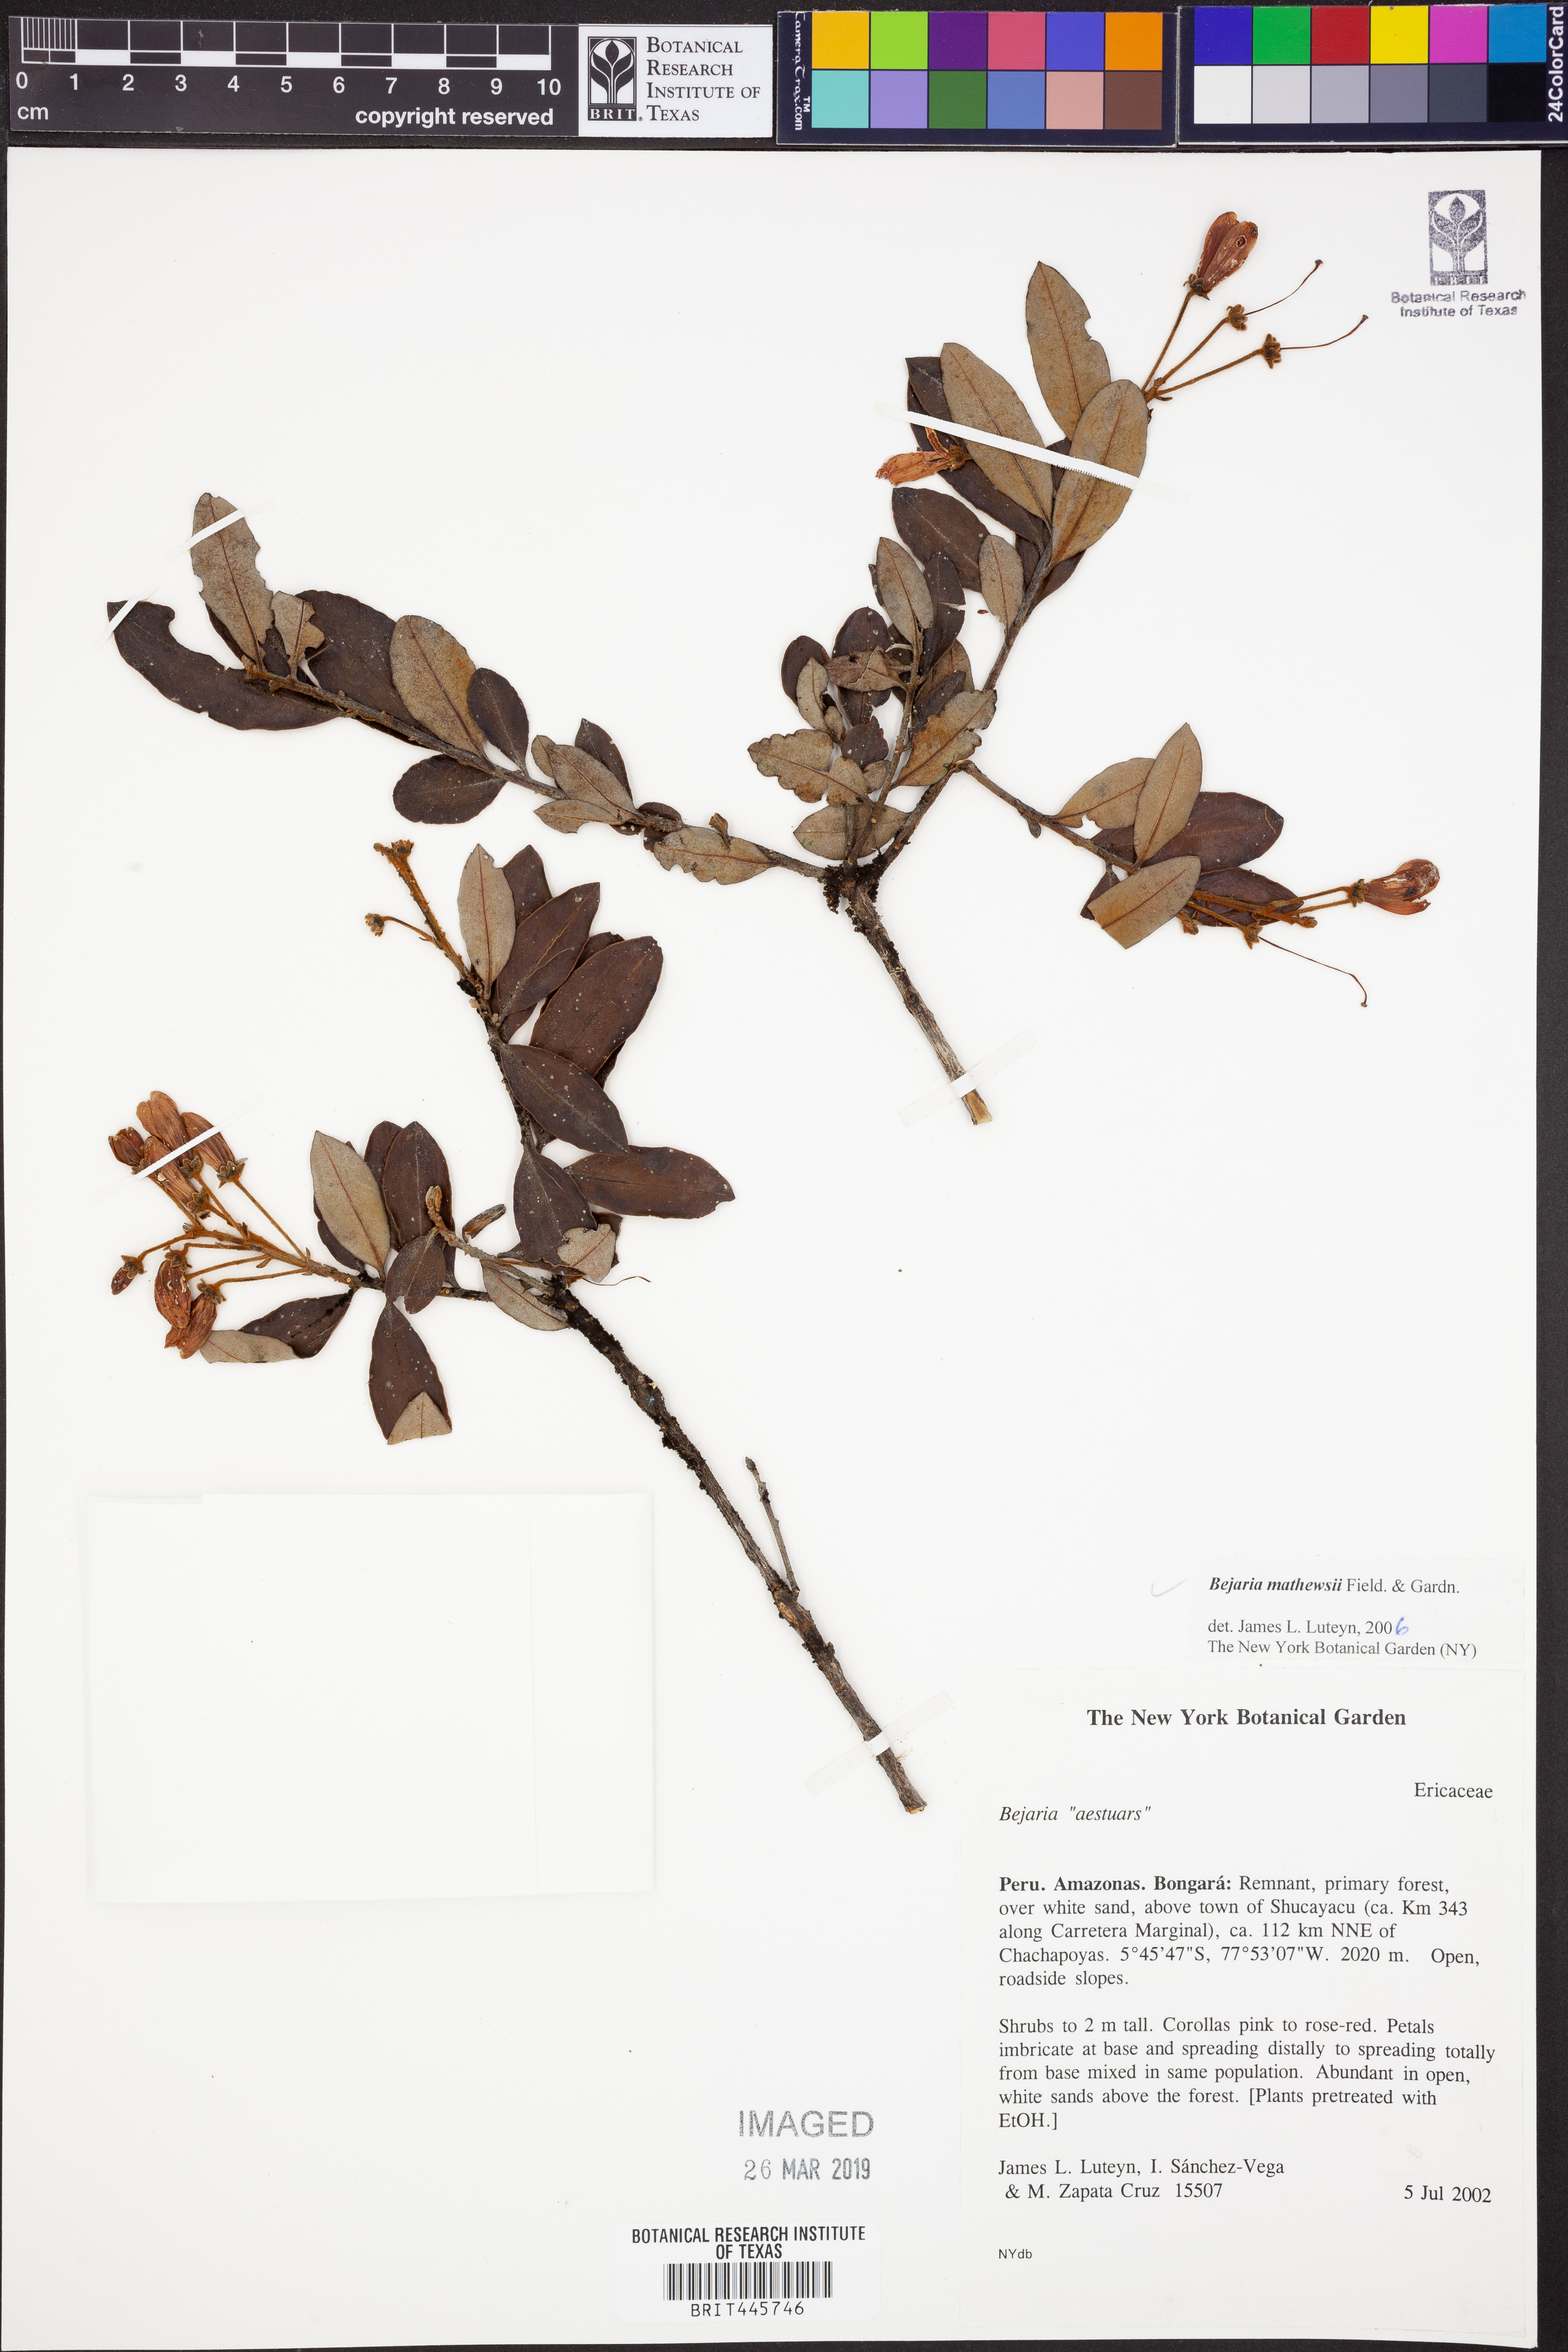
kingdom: Plantae
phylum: Tracheophyta
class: Magnoliopsida
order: Ericales
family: Ericaceae
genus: Bejaria
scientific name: Bejaria mathewsii
